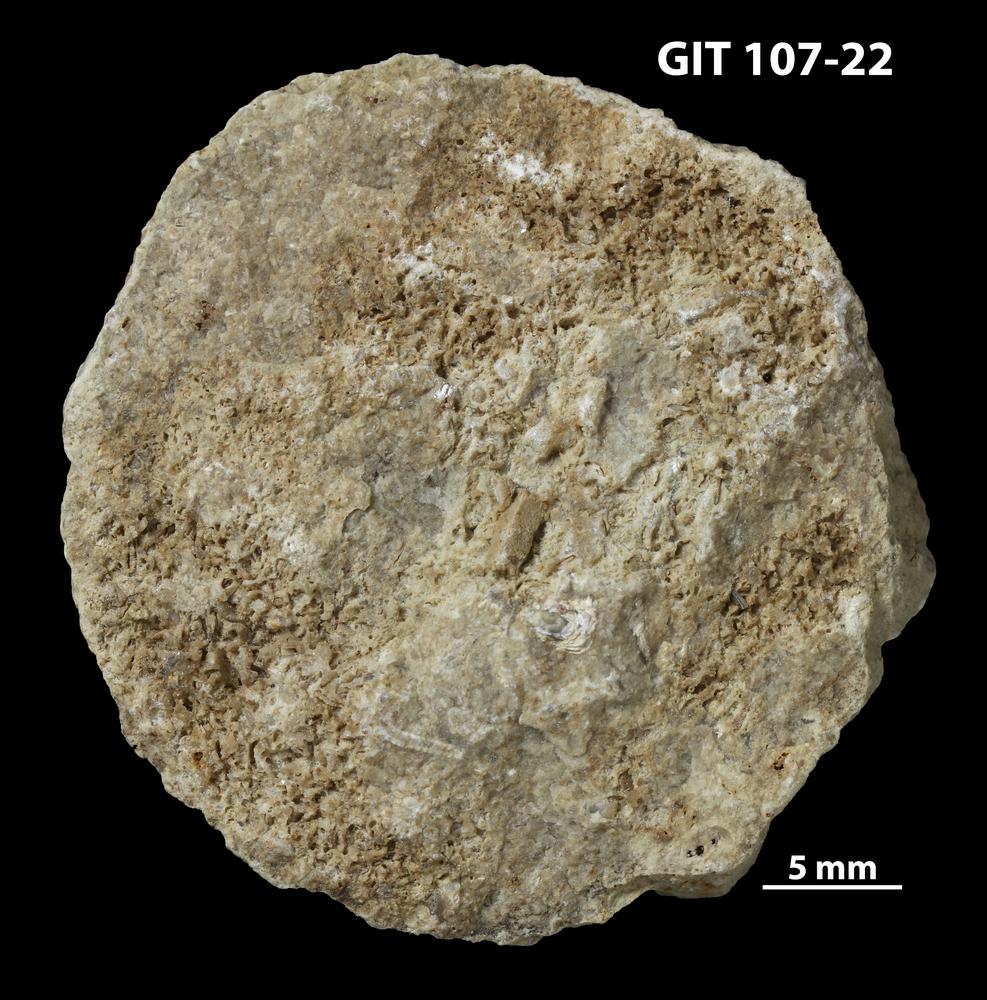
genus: Amphorichnus
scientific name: Amphorichnus
